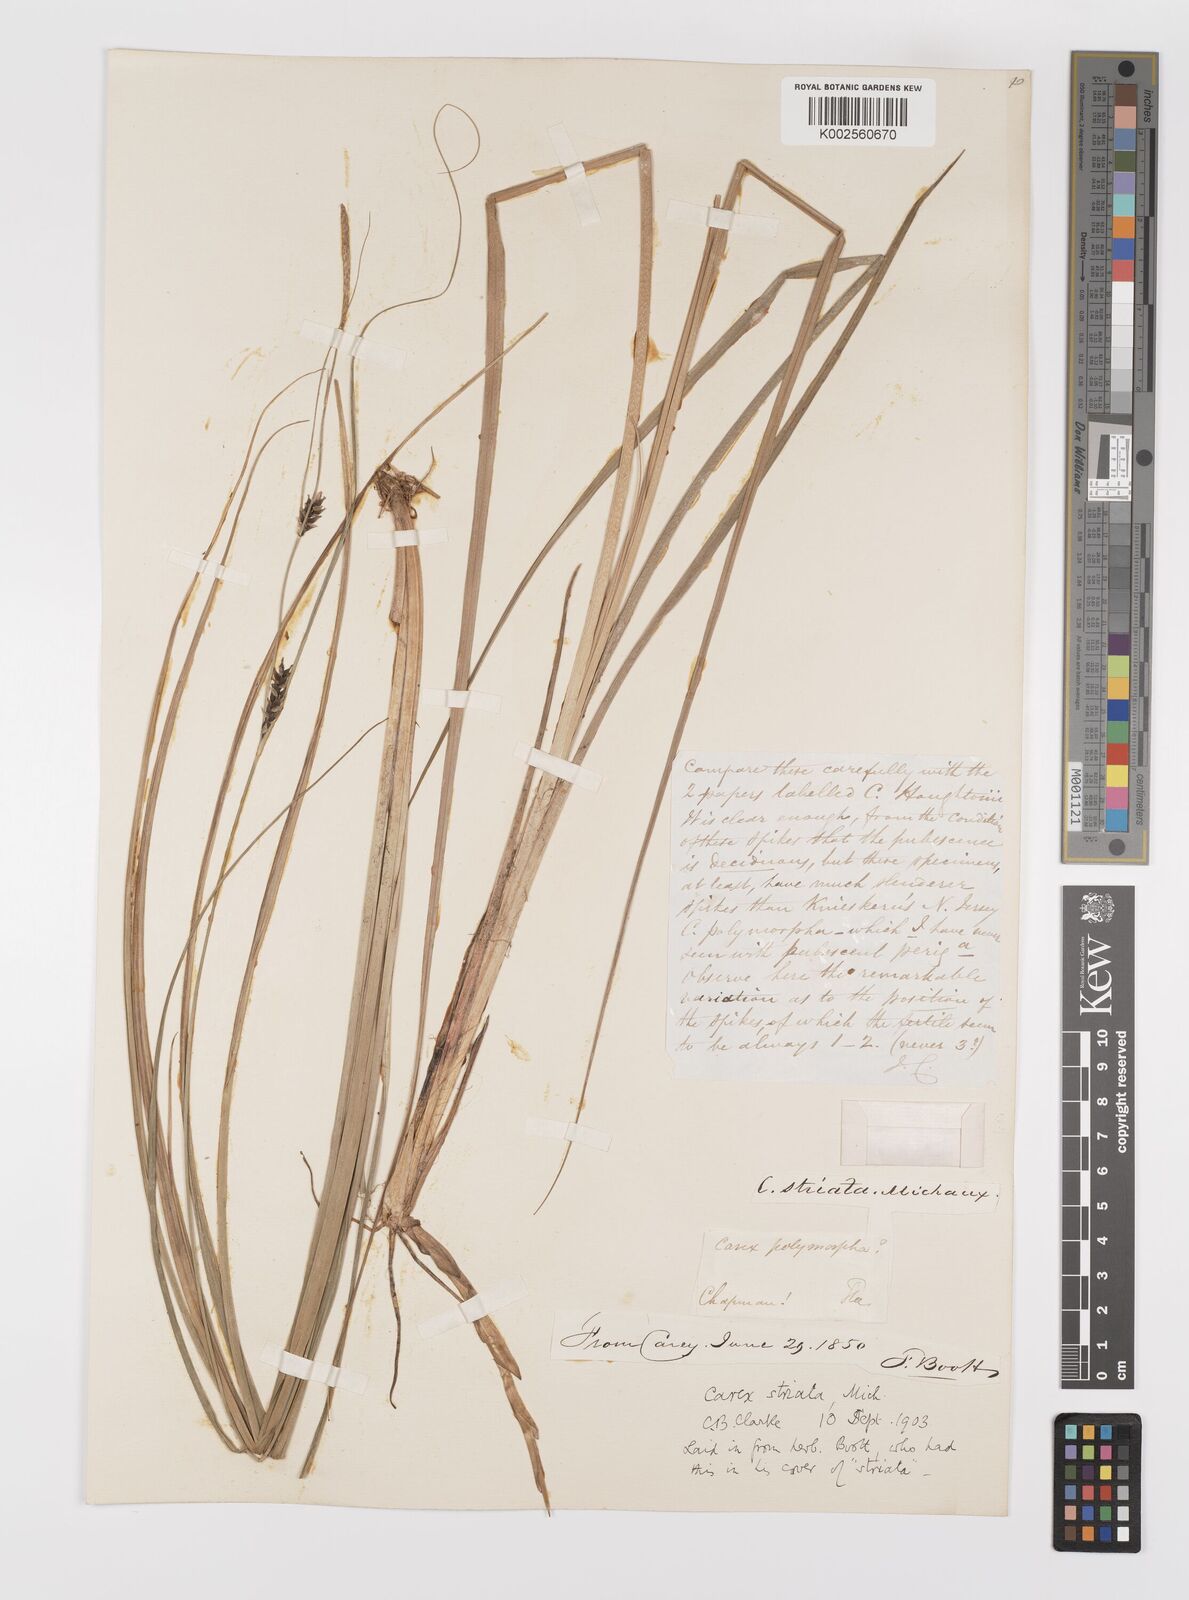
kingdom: Plantae
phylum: Tracheophyta
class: Liliopsida
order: Poales
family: Cyperaceae
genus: Carex
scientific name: Carex striata
